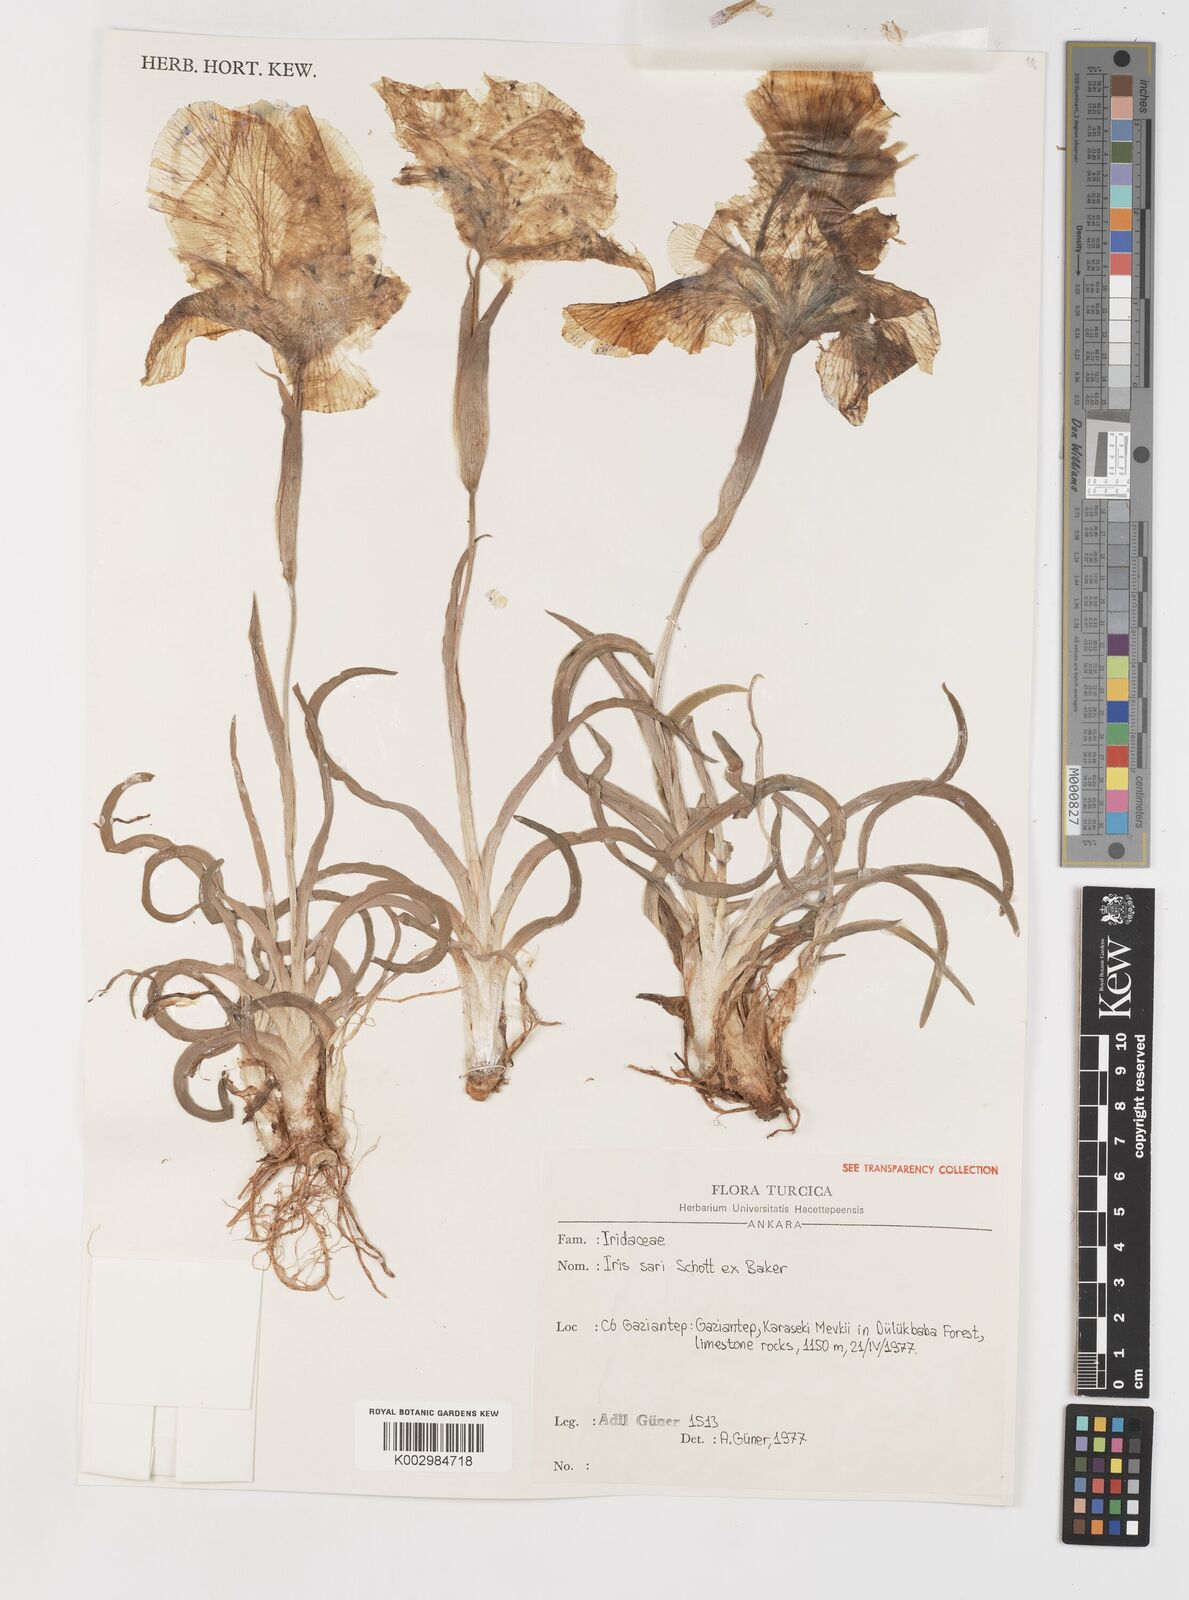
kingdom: Plantae
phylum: Tracheophyta
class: Liliopsida
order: Asparagales
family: Iridaceae
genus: Iris
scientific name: Iris sari
